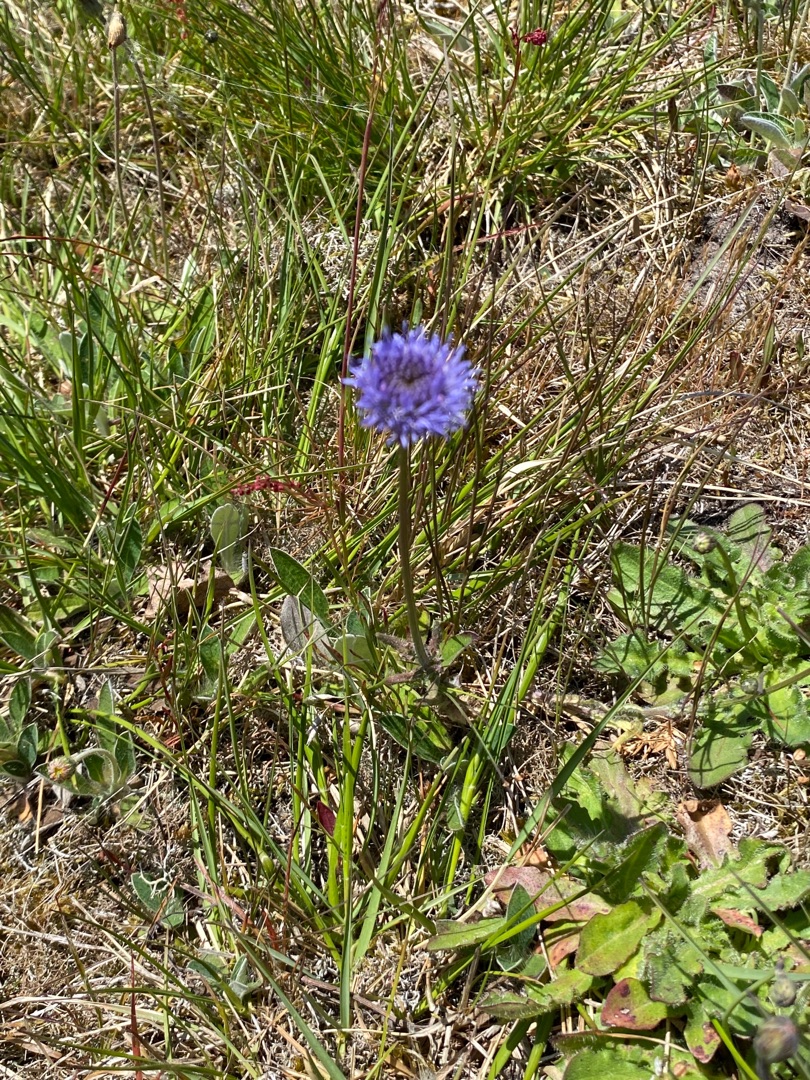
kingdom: Plantae
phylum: Tracheophyta
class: Magnoliopsida
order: Asterales
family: Campanulaceae
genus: Jasione
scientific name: Jasione montana
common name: Blåmunke
